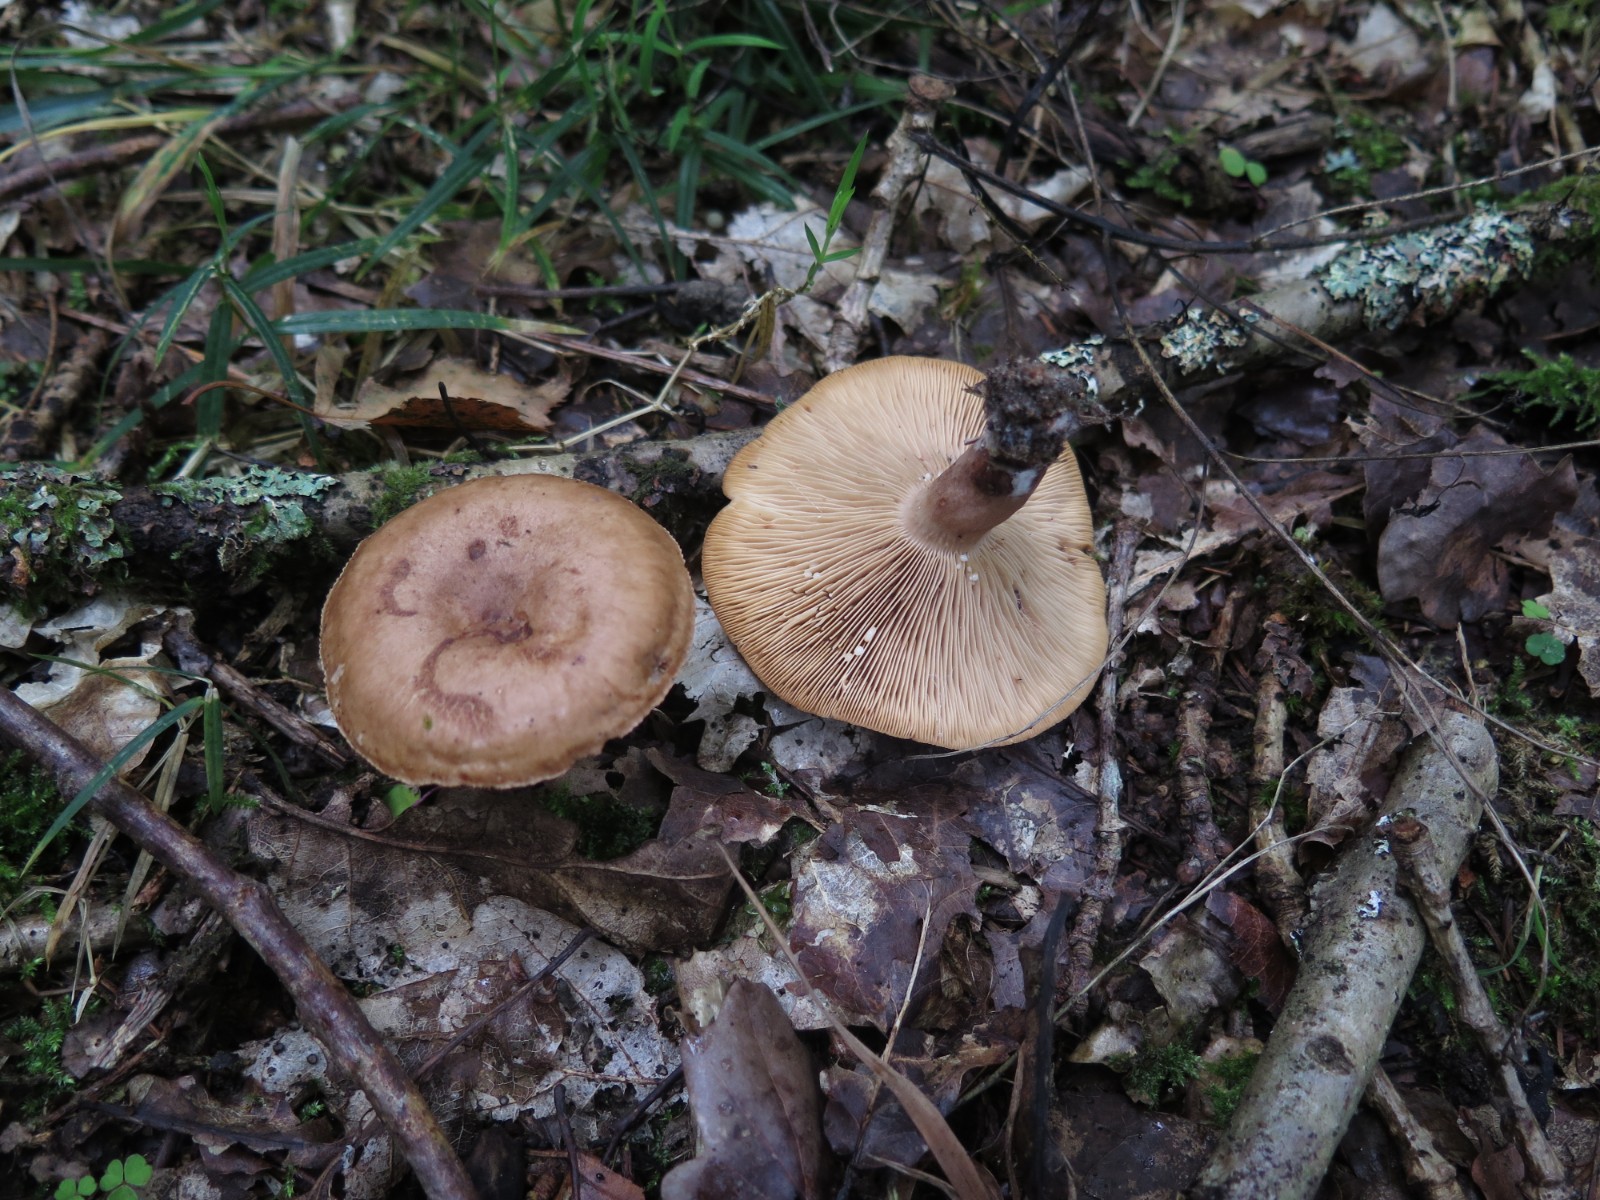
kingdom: Fungi
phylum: Basidiomycota
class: Agaricomycetes
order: Russulales
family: Russulaceae
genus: Lactarius
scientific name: Lactarius quietus
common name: ege-mælkehat
